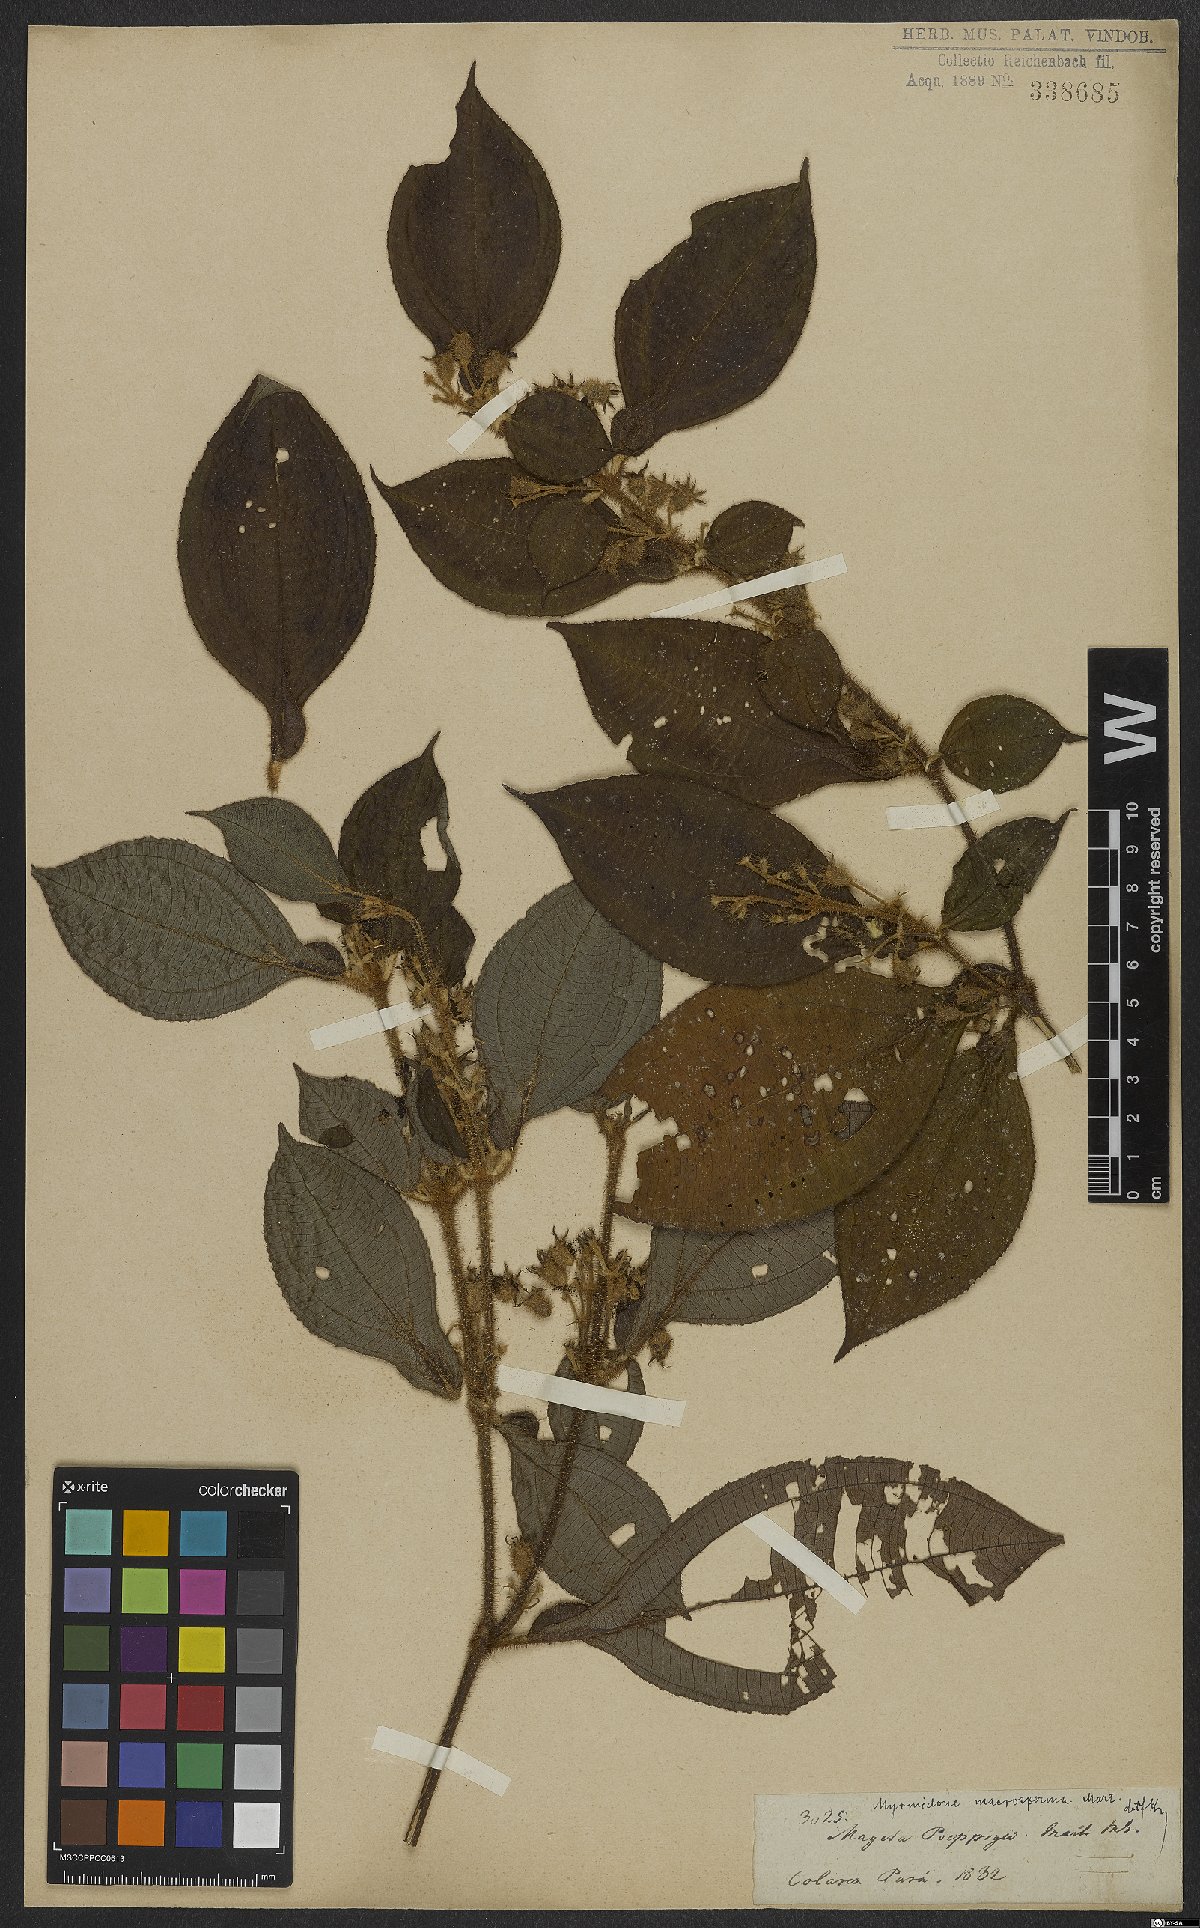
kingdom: Plantae
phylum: Tracheophyta
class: Magnoliopsida
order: Myrtales
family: Melastomataceae
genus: Miconia
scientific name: Miconia alternidomatia
